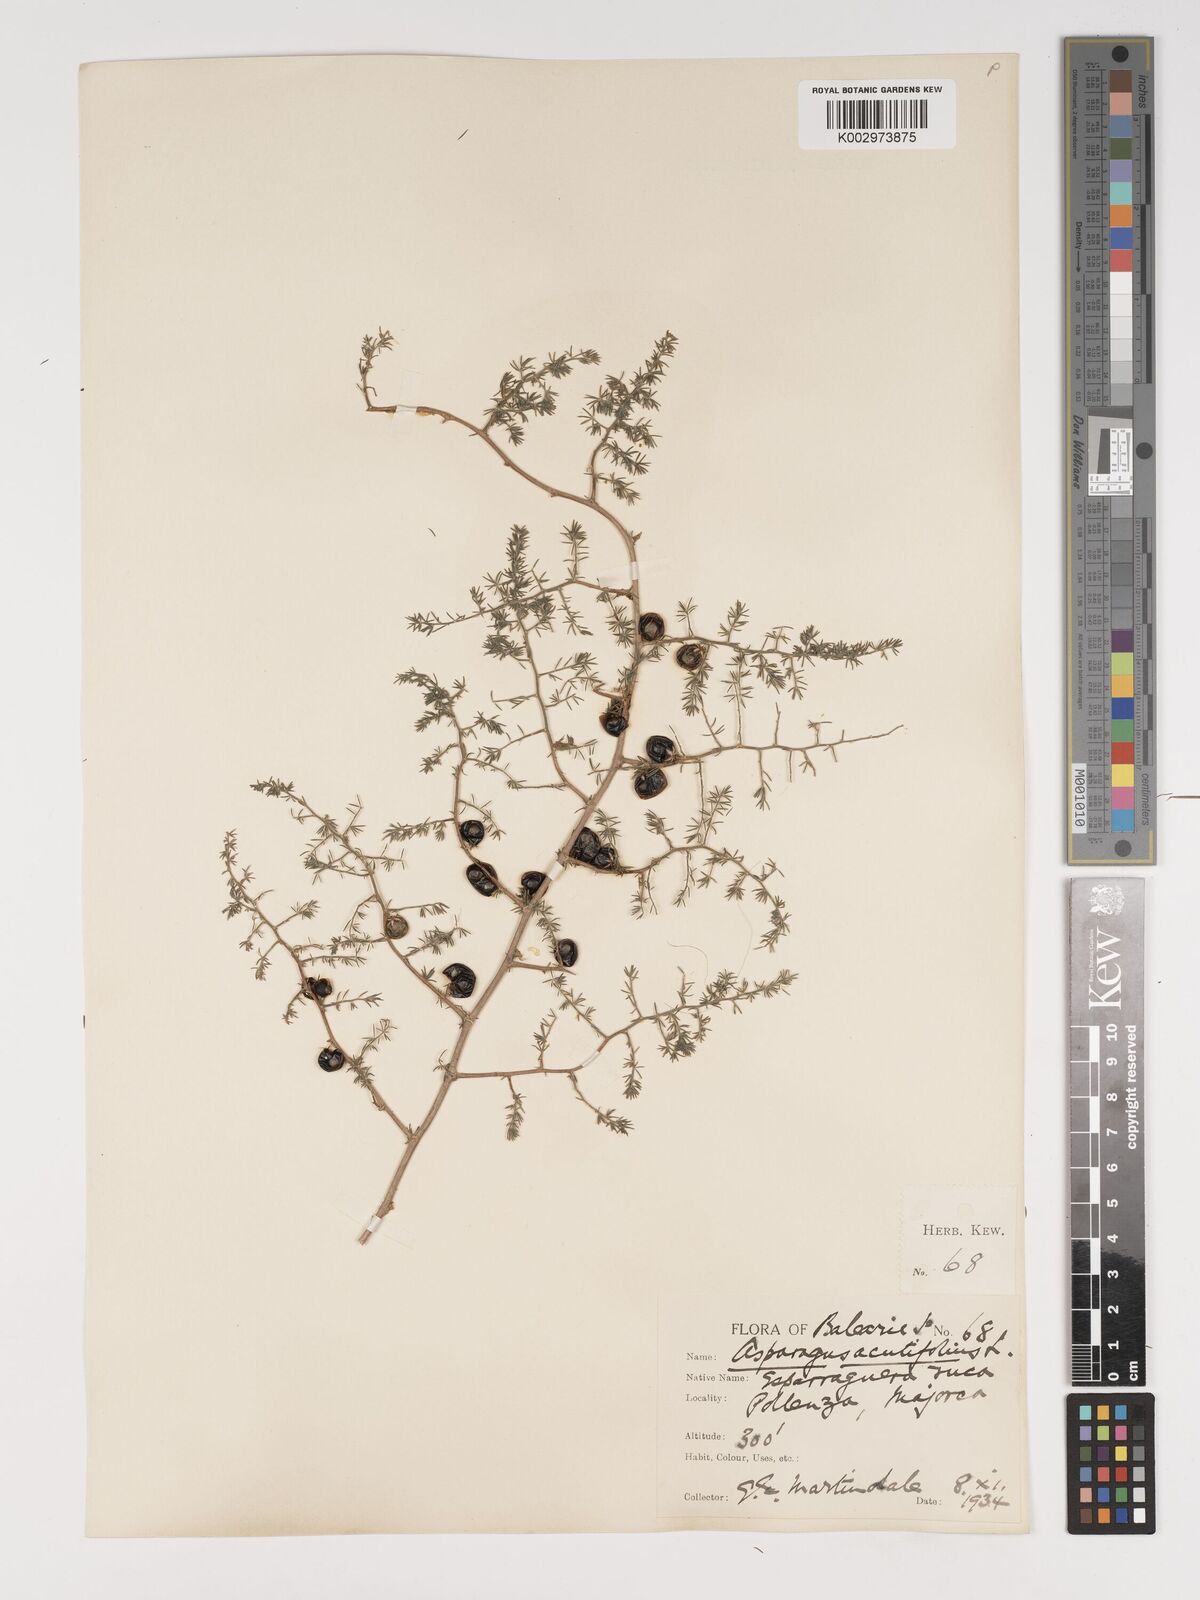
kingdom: Plantae
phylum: Tracheophyta
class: Liliopsida
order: Asparagales
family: Asparagaceae
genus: Asparagus
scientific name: Asparagus acutifolius
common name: Wild asparagus
